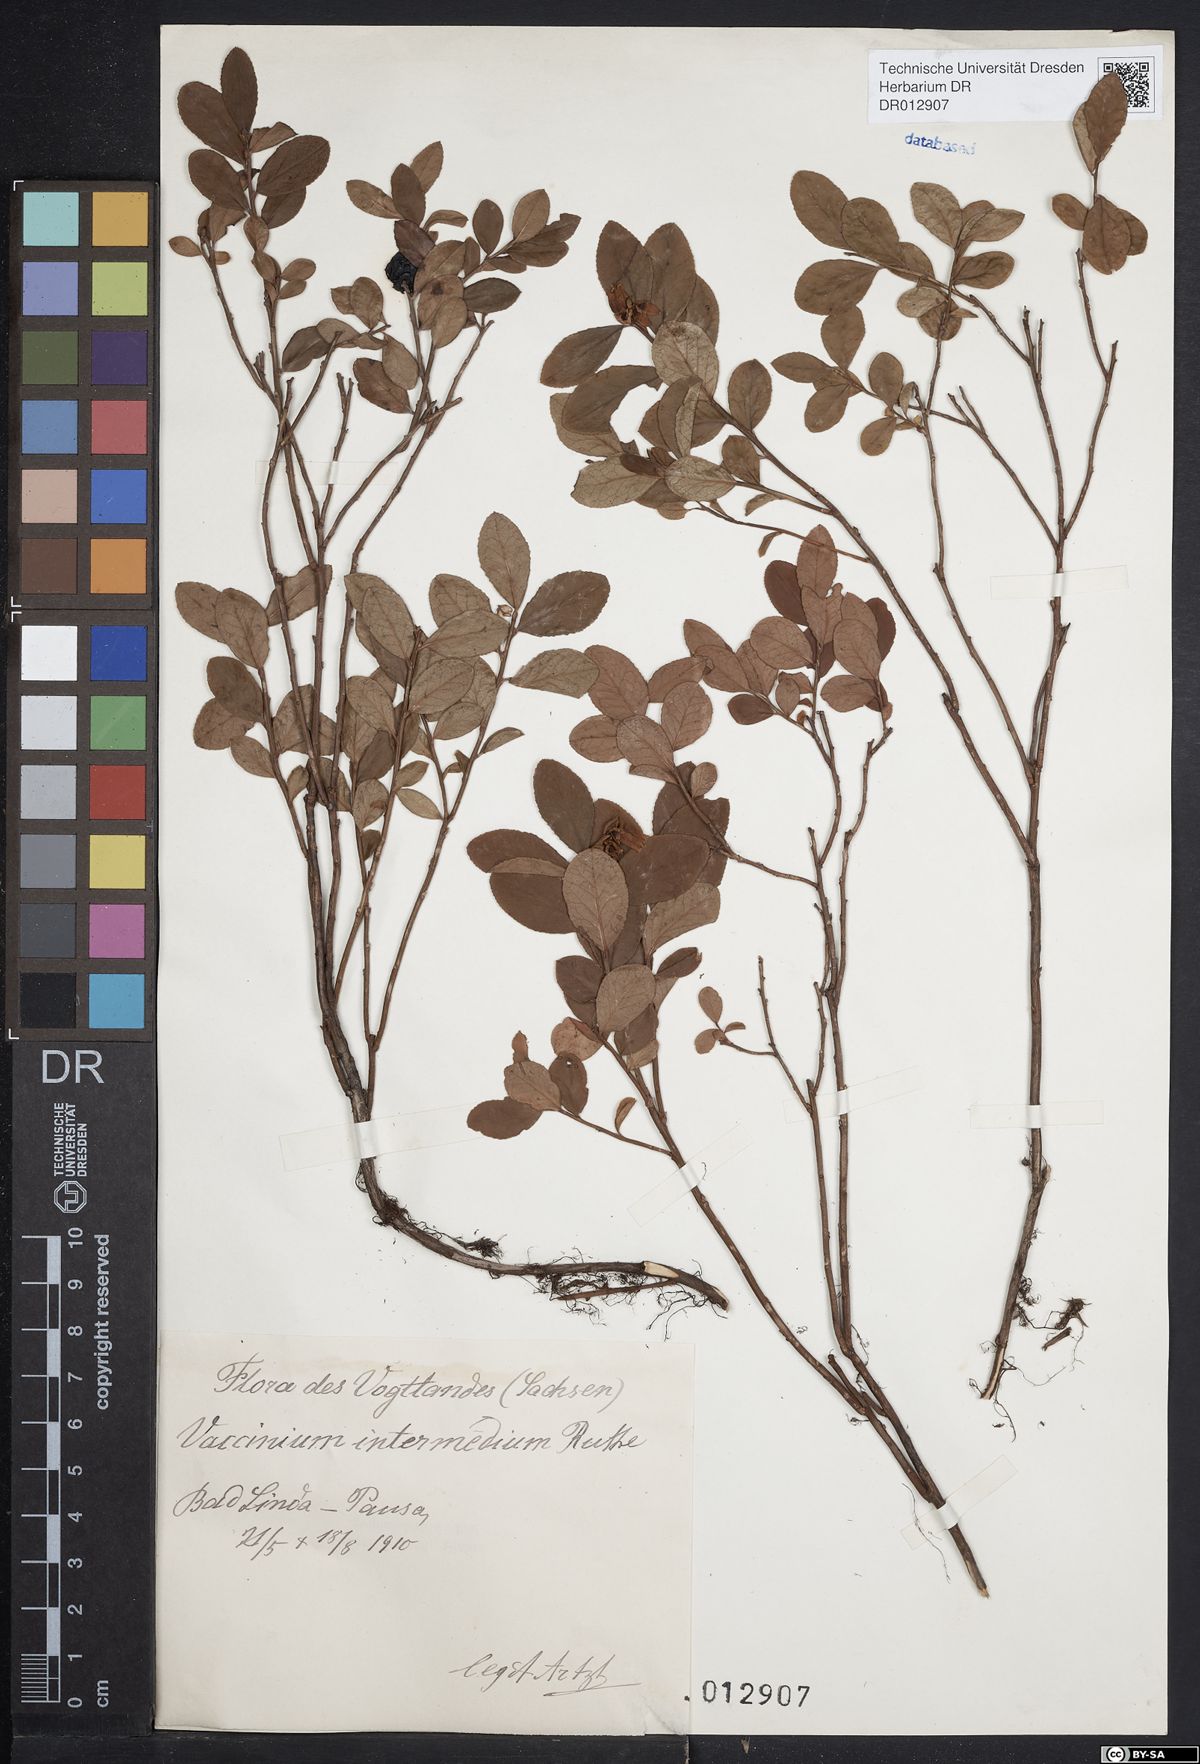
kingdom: Plantae
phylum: Tracheophyta
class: Magnoliopsida
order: Ericales
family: Ericaceae
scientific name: Ericaceae
